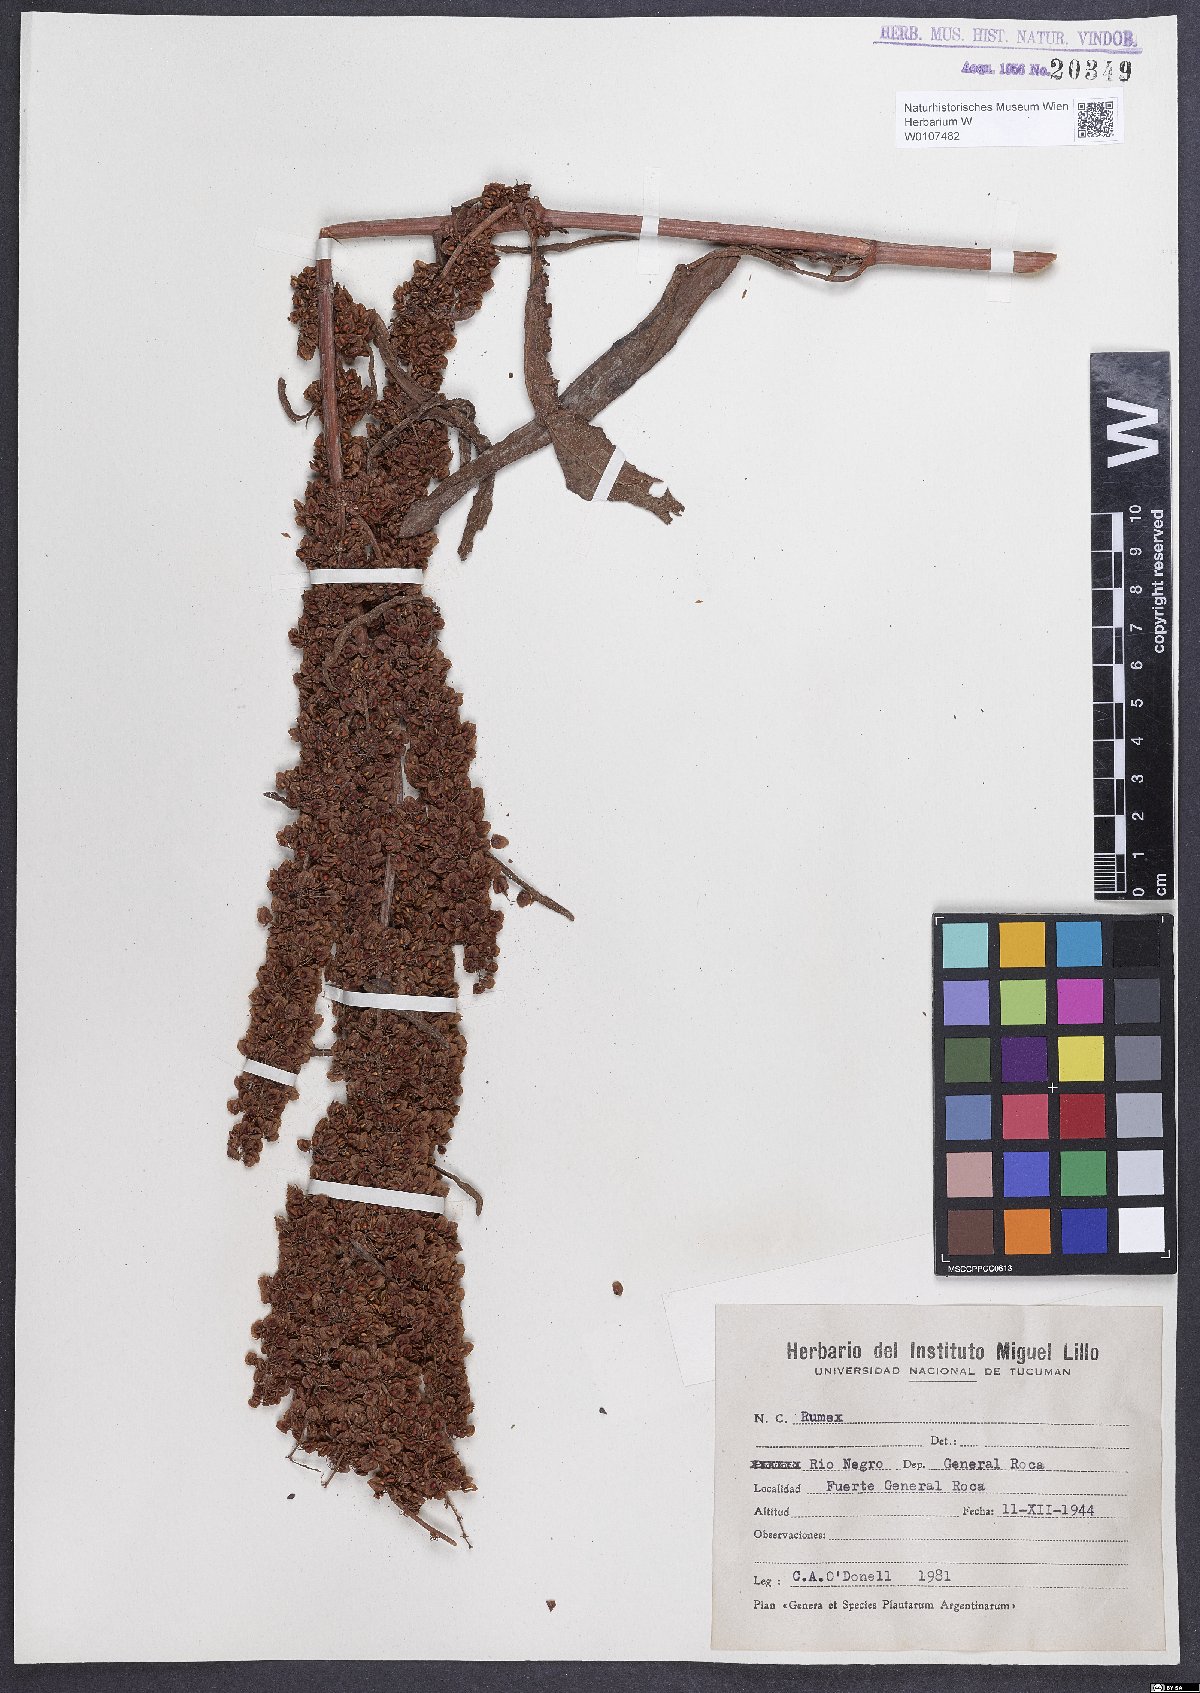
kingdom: Plantae
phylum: Tracheophyta
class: Magnoliopsida
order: Caryophyllales
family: Polygonaceae
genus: Rumex
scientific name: Rumex crispus
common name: Curled dock
